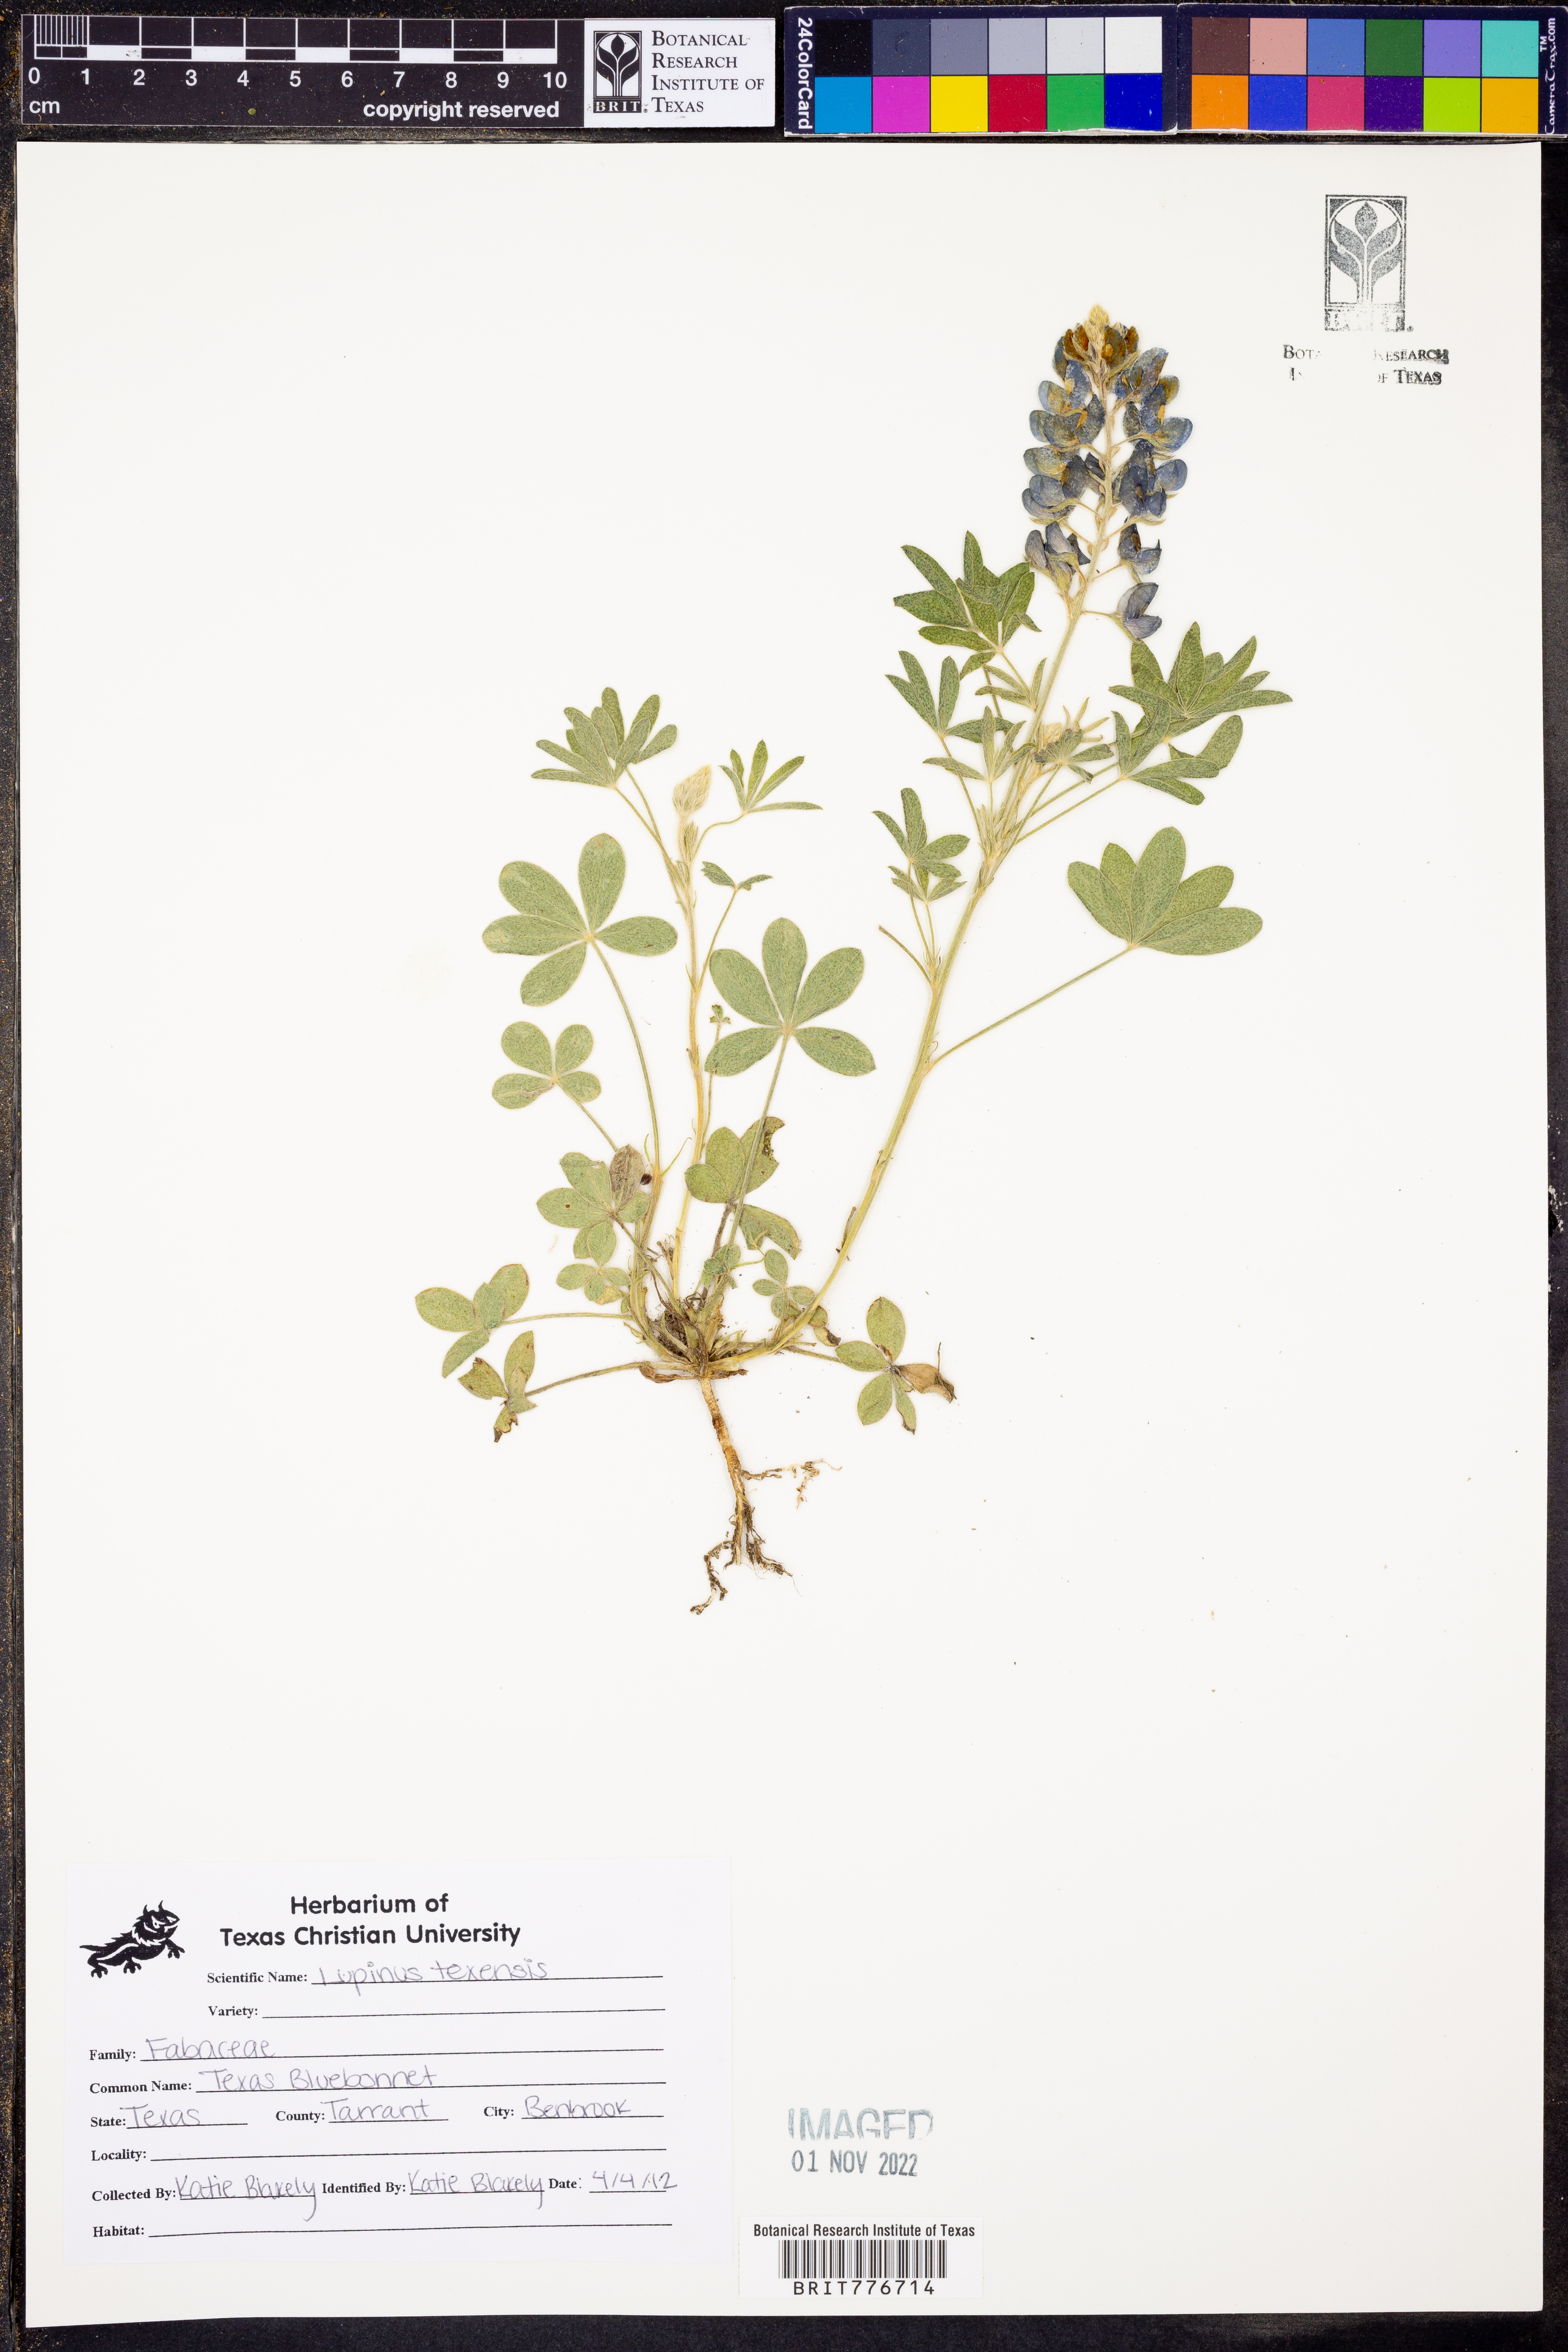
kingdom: Plantae
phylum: Tracheophyta
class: Magnoliopsida
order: Fabales
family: Fabaceae
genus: Lupinus
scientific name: Lupinus texensis
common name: Texas bluebonnet
